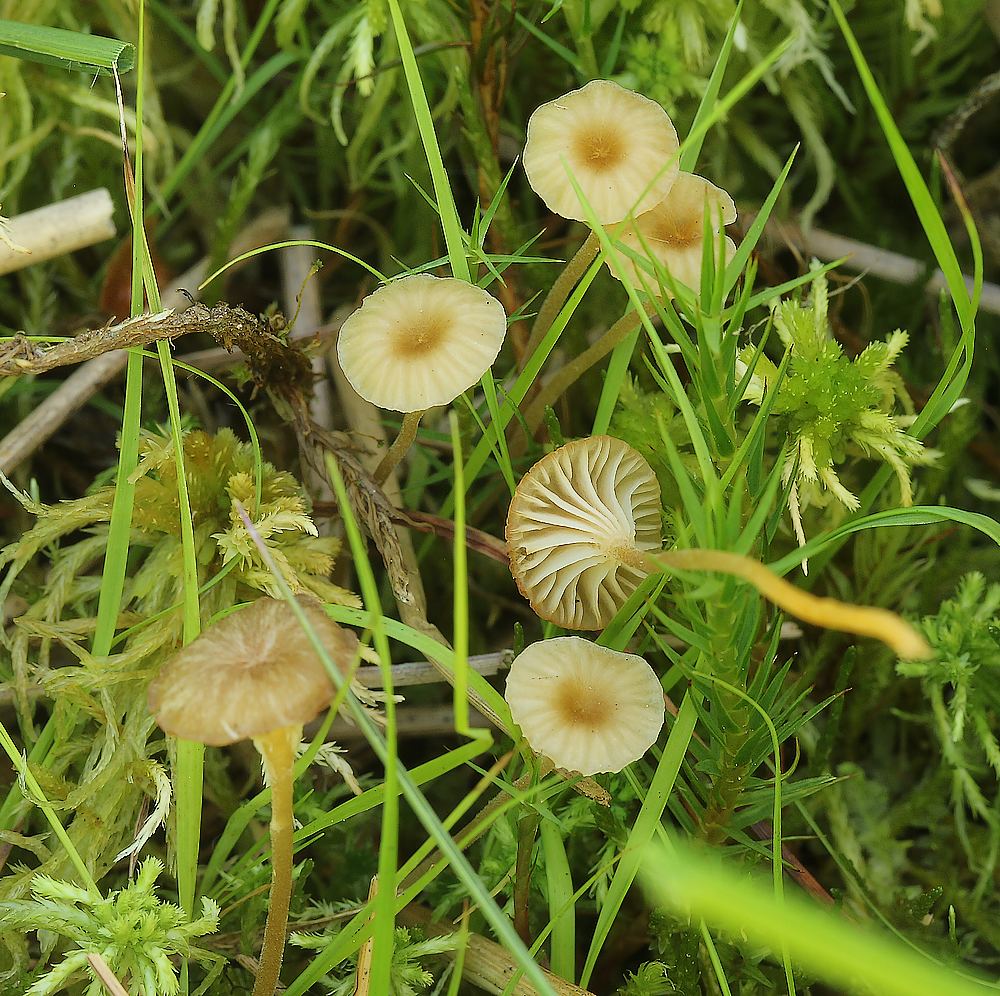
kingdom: Fungi
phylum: Basidiomycota
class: Agaricomycetes
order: Hymenochaetales
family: Rickenellaceae
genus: Rickenella
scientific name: Rickenella fibula
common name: orange mosnavlehat
